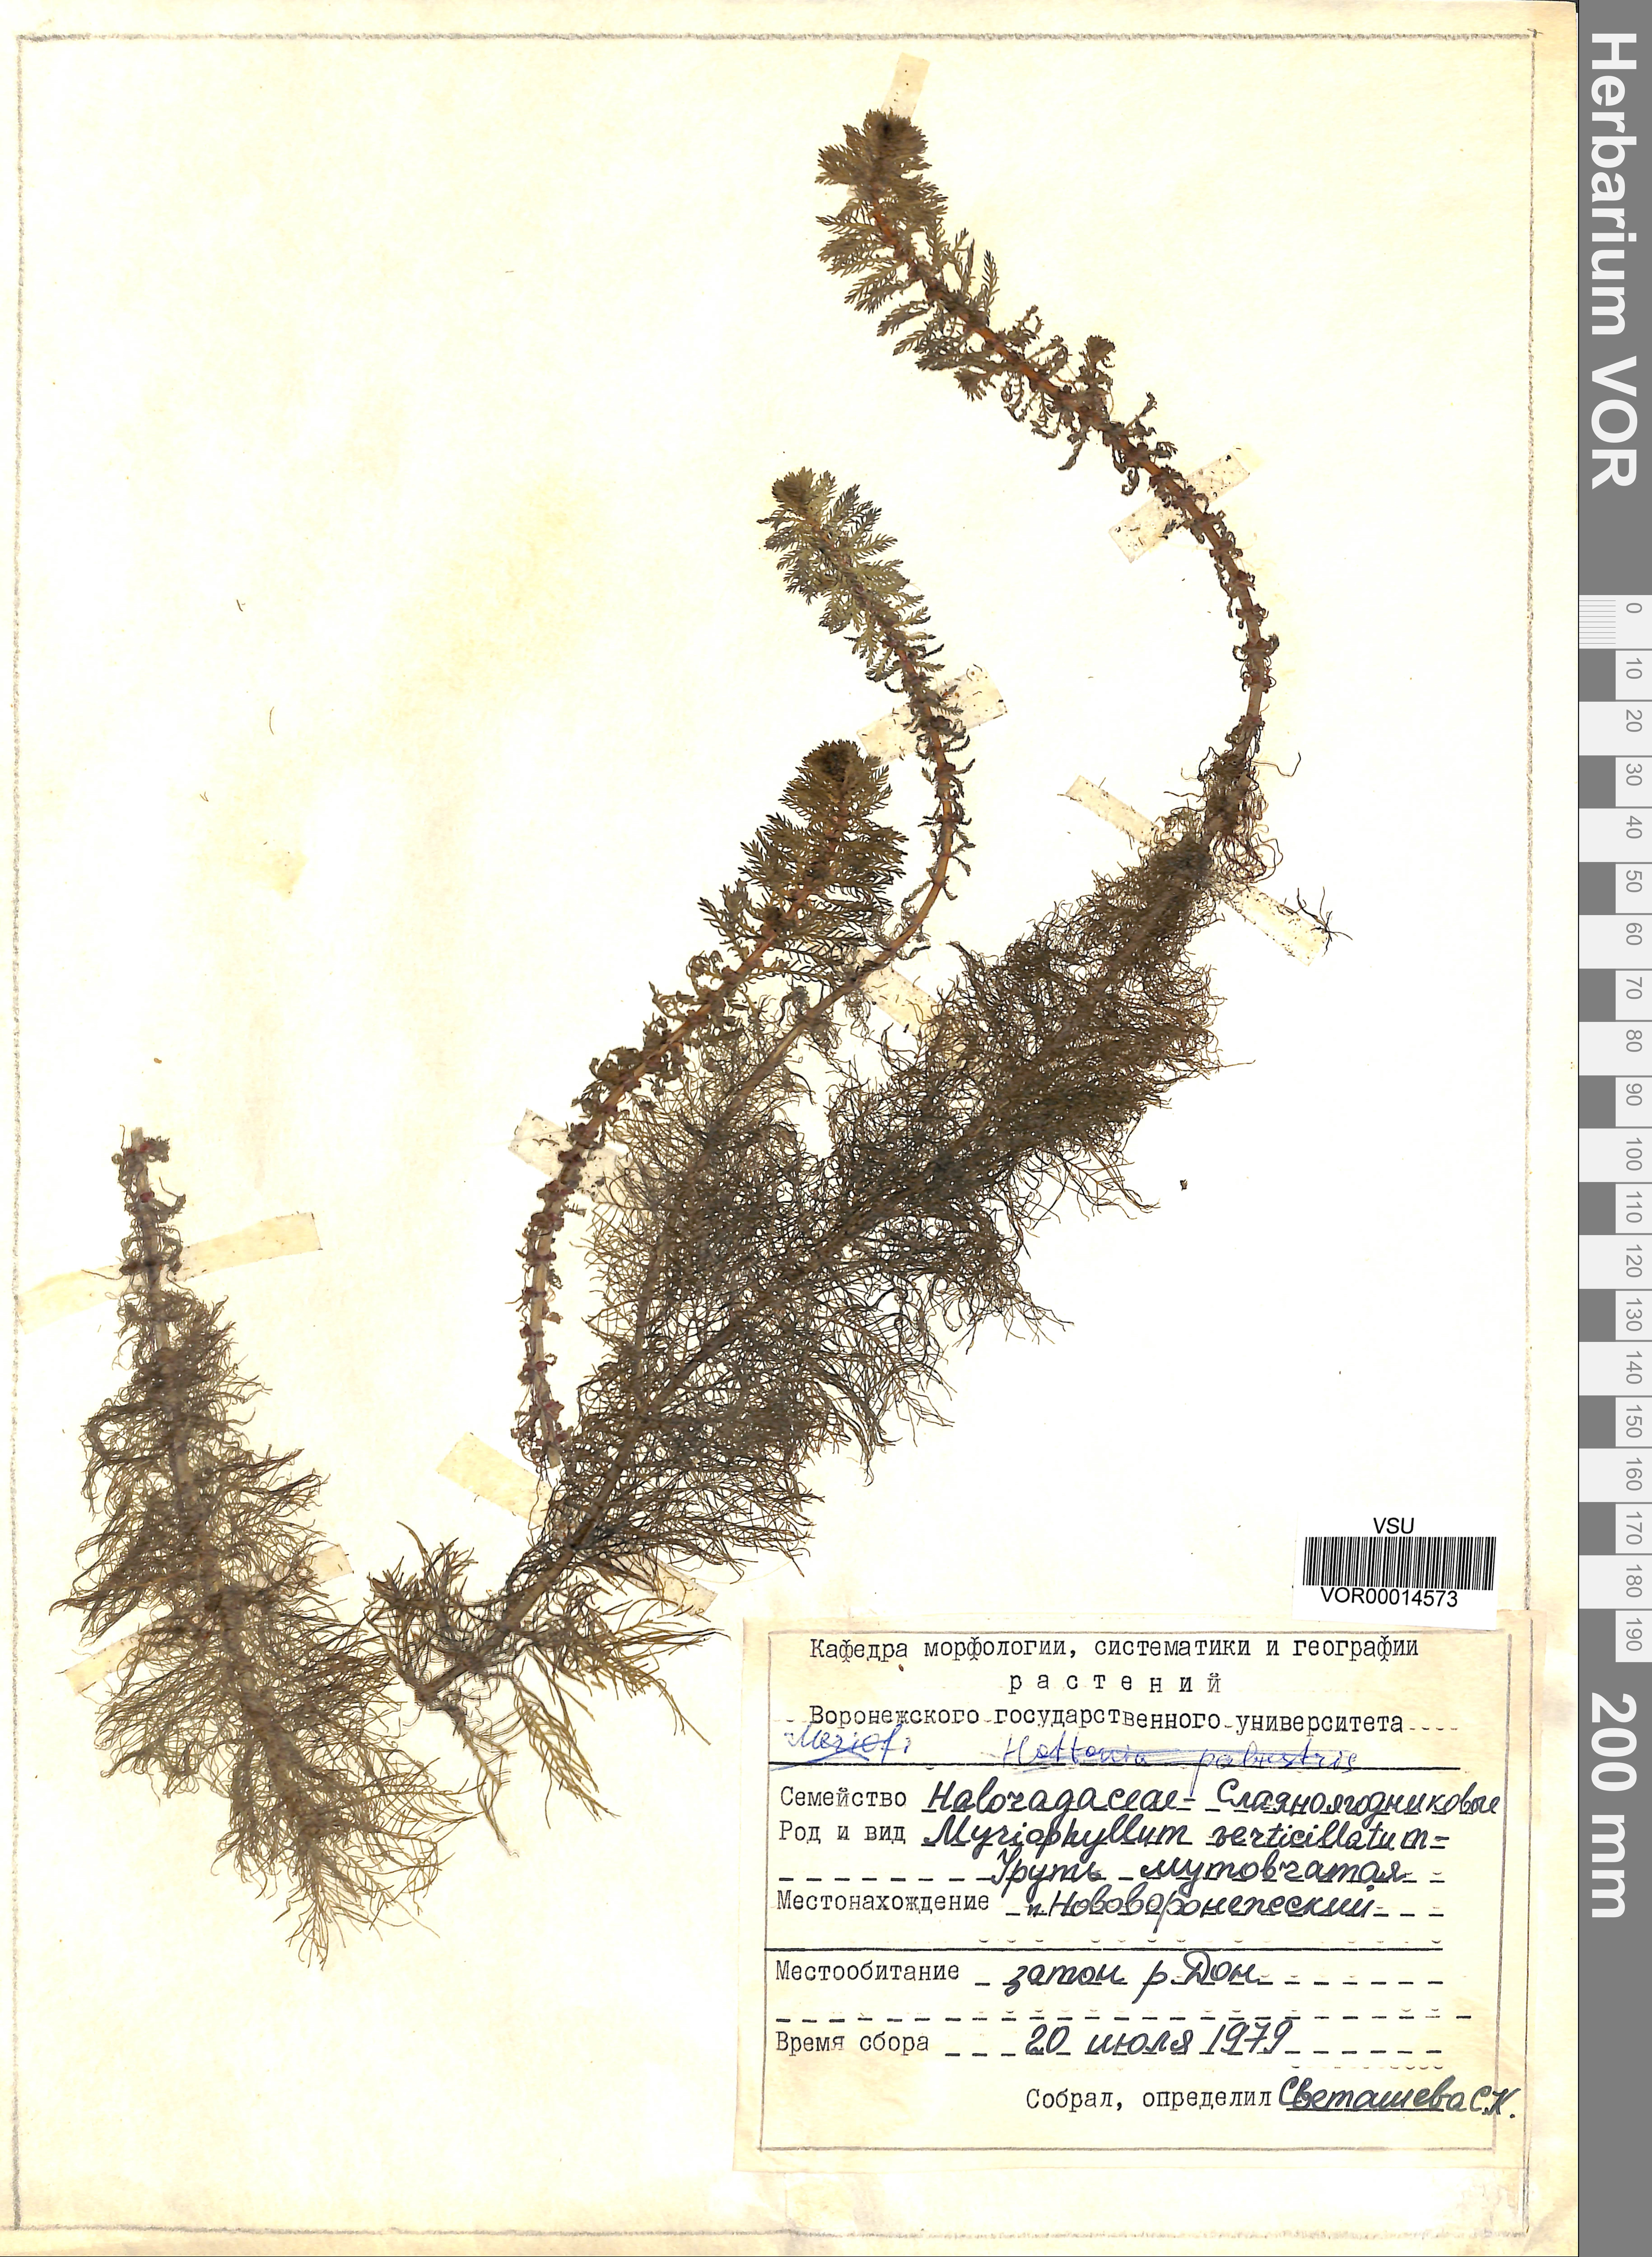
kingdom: Plantae
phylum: Tracheophyta
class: Magnoliopsida
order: Saxifragales
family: Haloragaceae
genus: Myriophyllum
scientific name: Myriophyllum verticillatum
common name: Whorled water-milfoil
